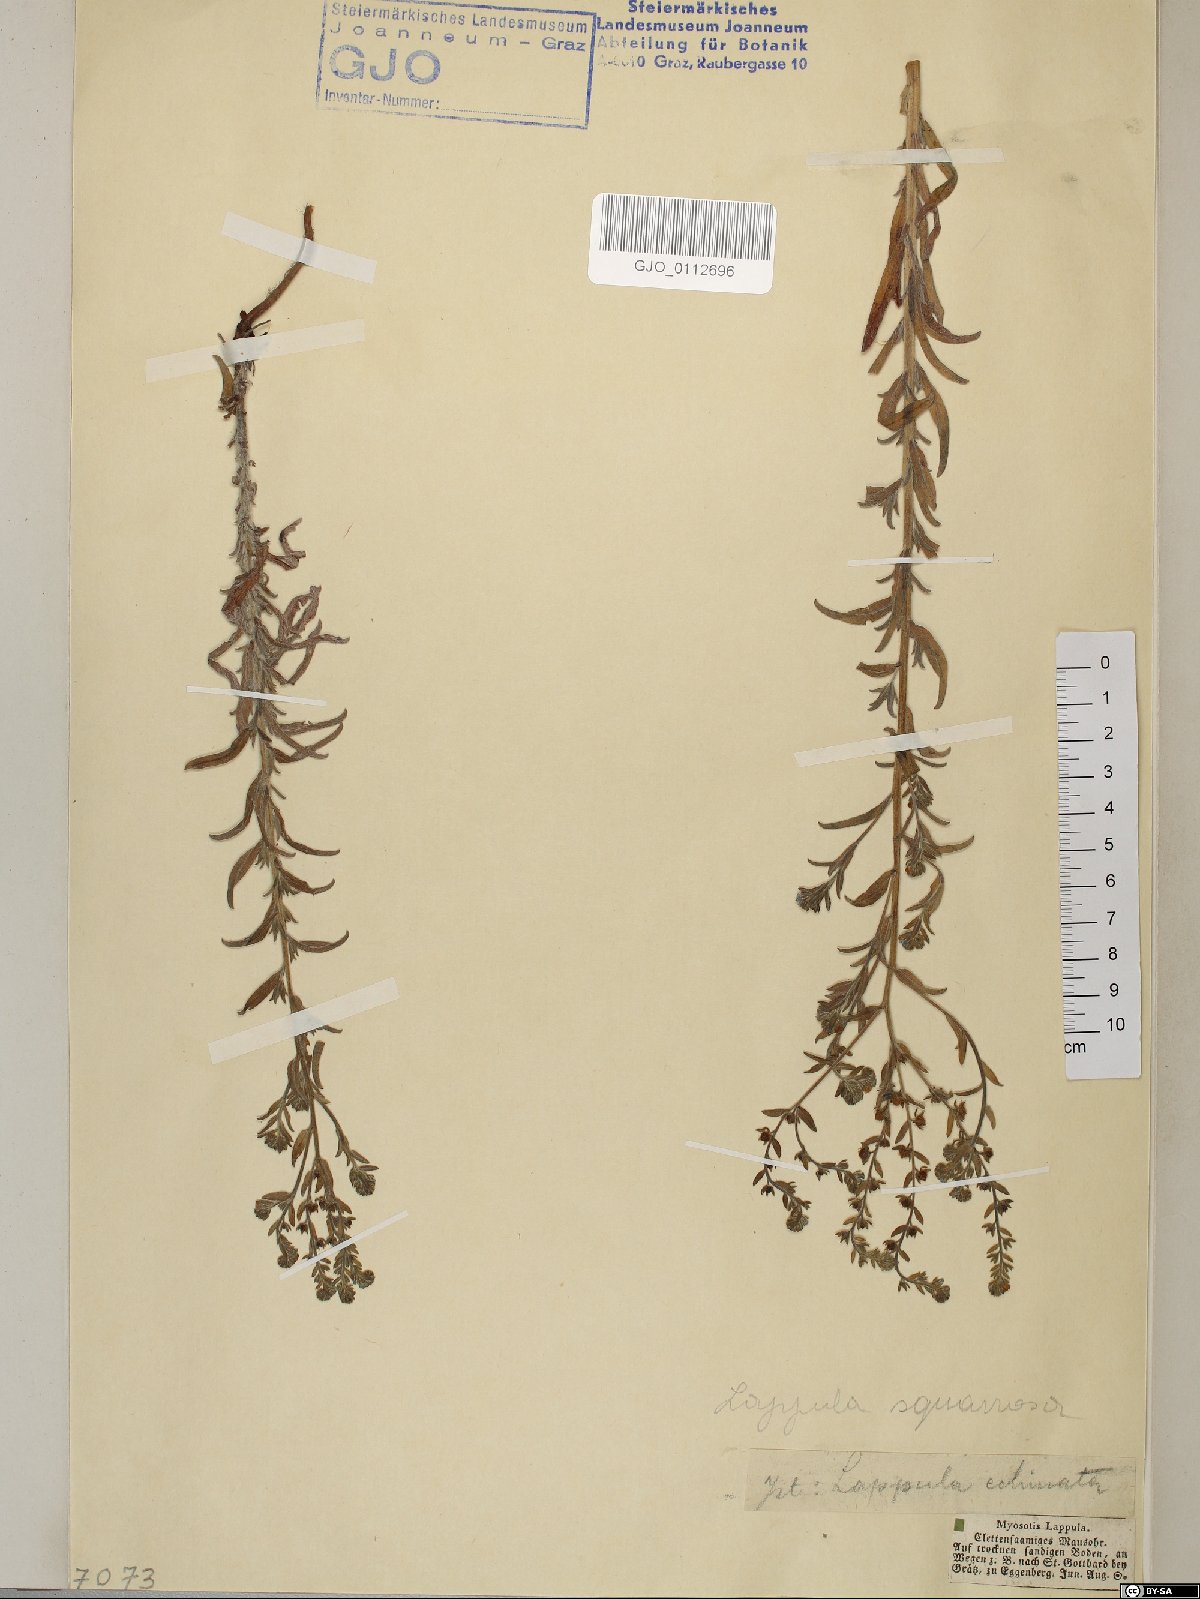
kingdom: Plantae
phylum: Tracheophyta
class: Magnoliopsida
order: Boraginales
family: Boraginaceae
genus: Lappula
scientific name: Lappula squarrosa
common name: European stickseed
